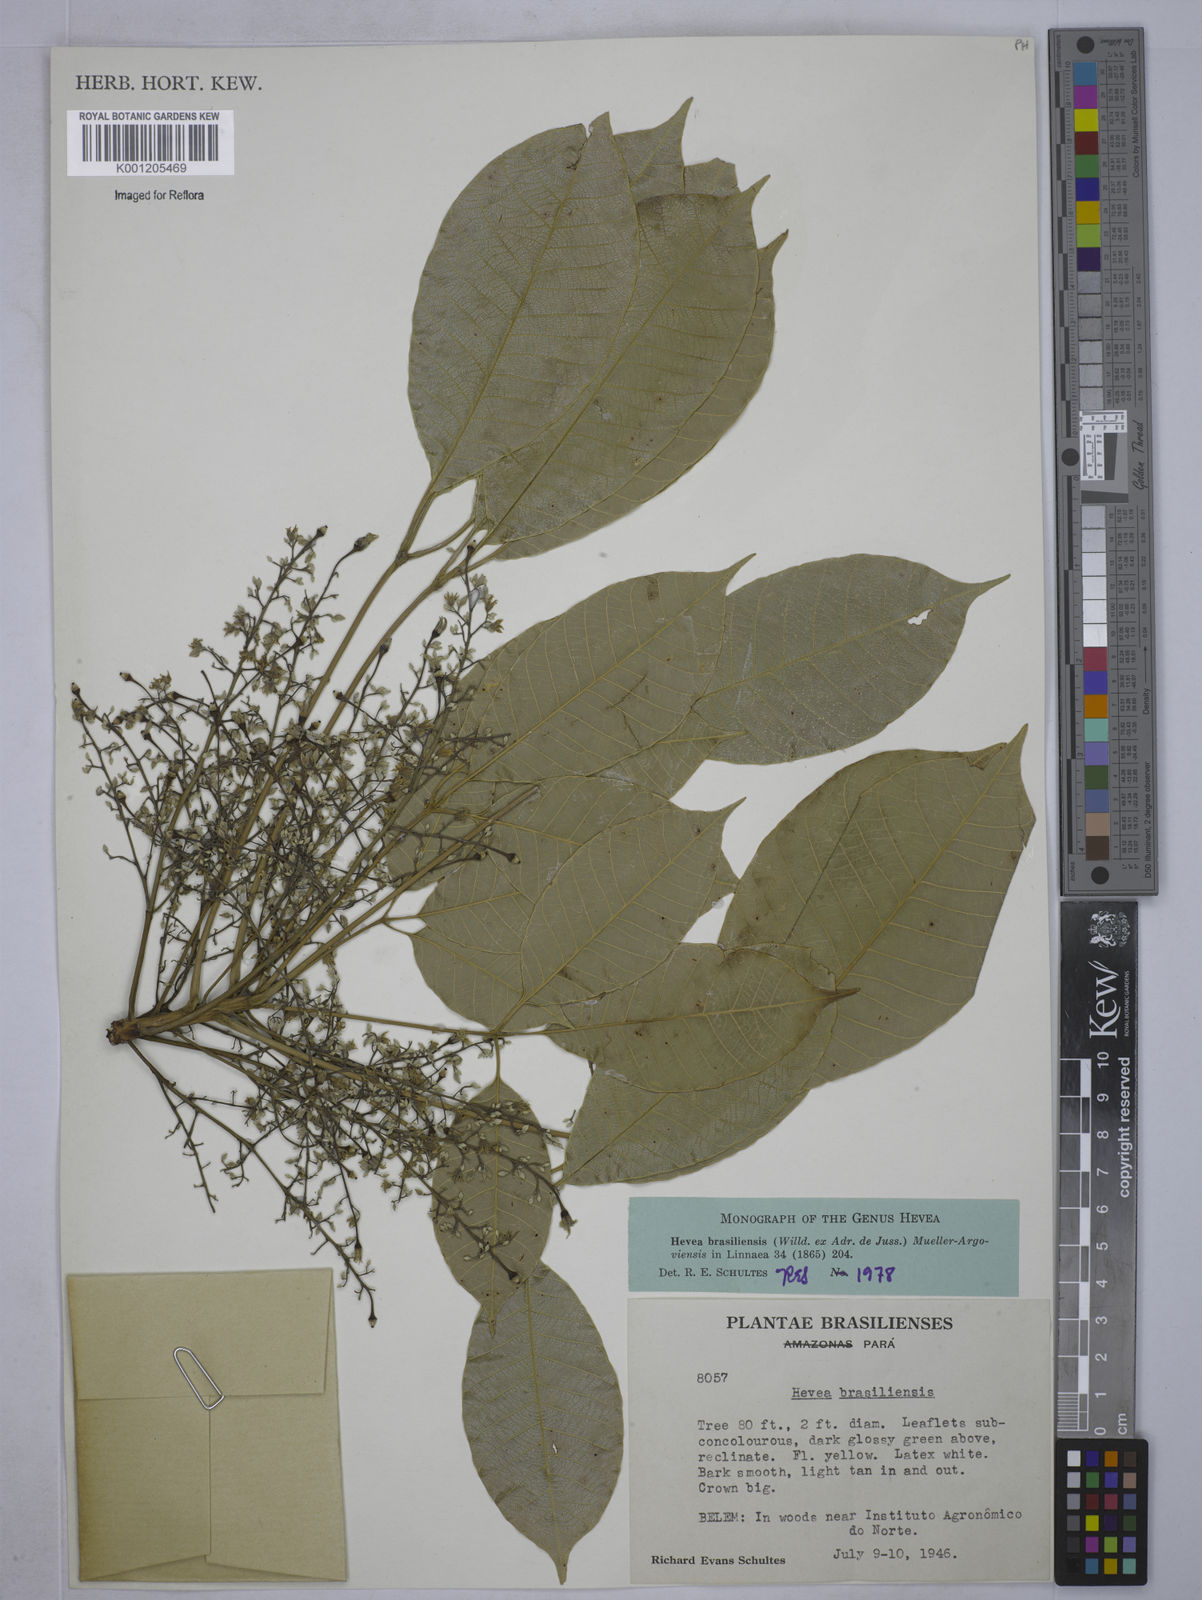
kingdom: Plantae
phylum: Tracheophyta
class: Magnoliopsida
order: Malpighiales
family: Euphorbiaceae
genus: Hevea
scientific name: Hevea
